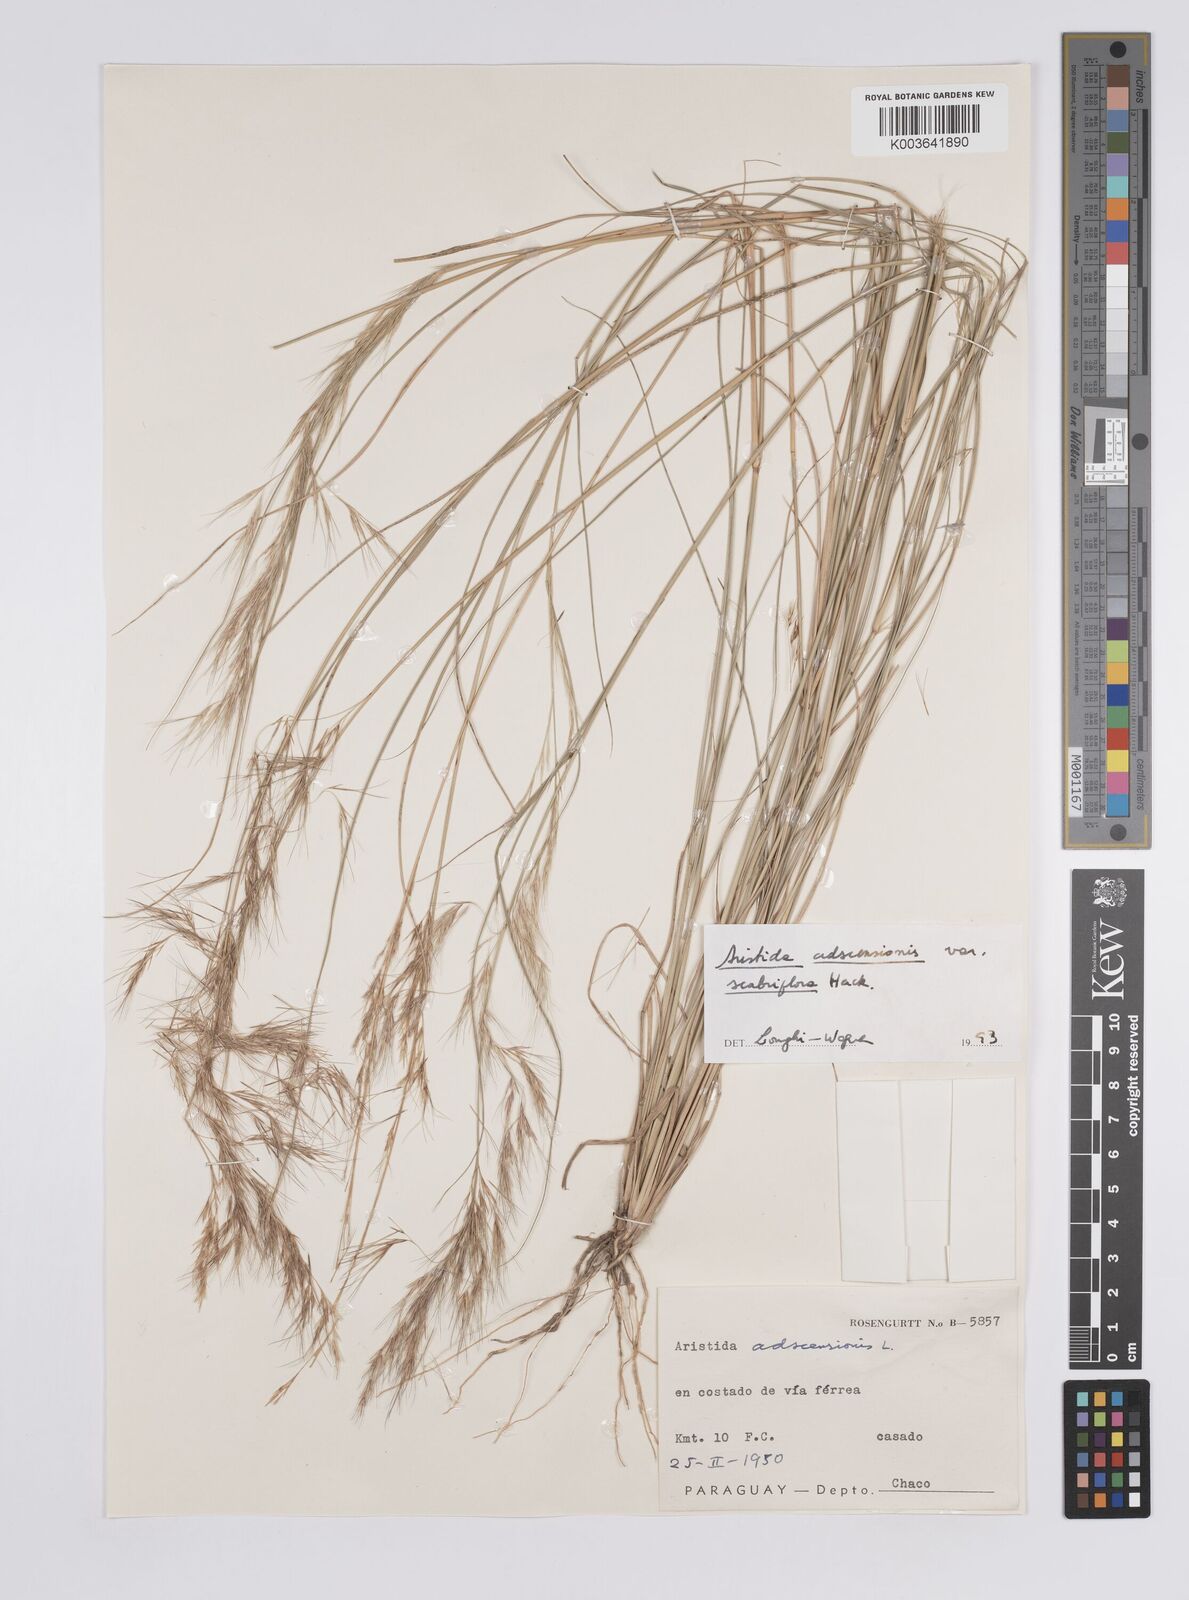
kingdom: Plantae
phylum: Tracheophyta
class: Liliopsida
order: Poales
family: Poaceae
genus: Aristida
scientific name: Aristida adscensionis
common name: Sixweeks threeawn
